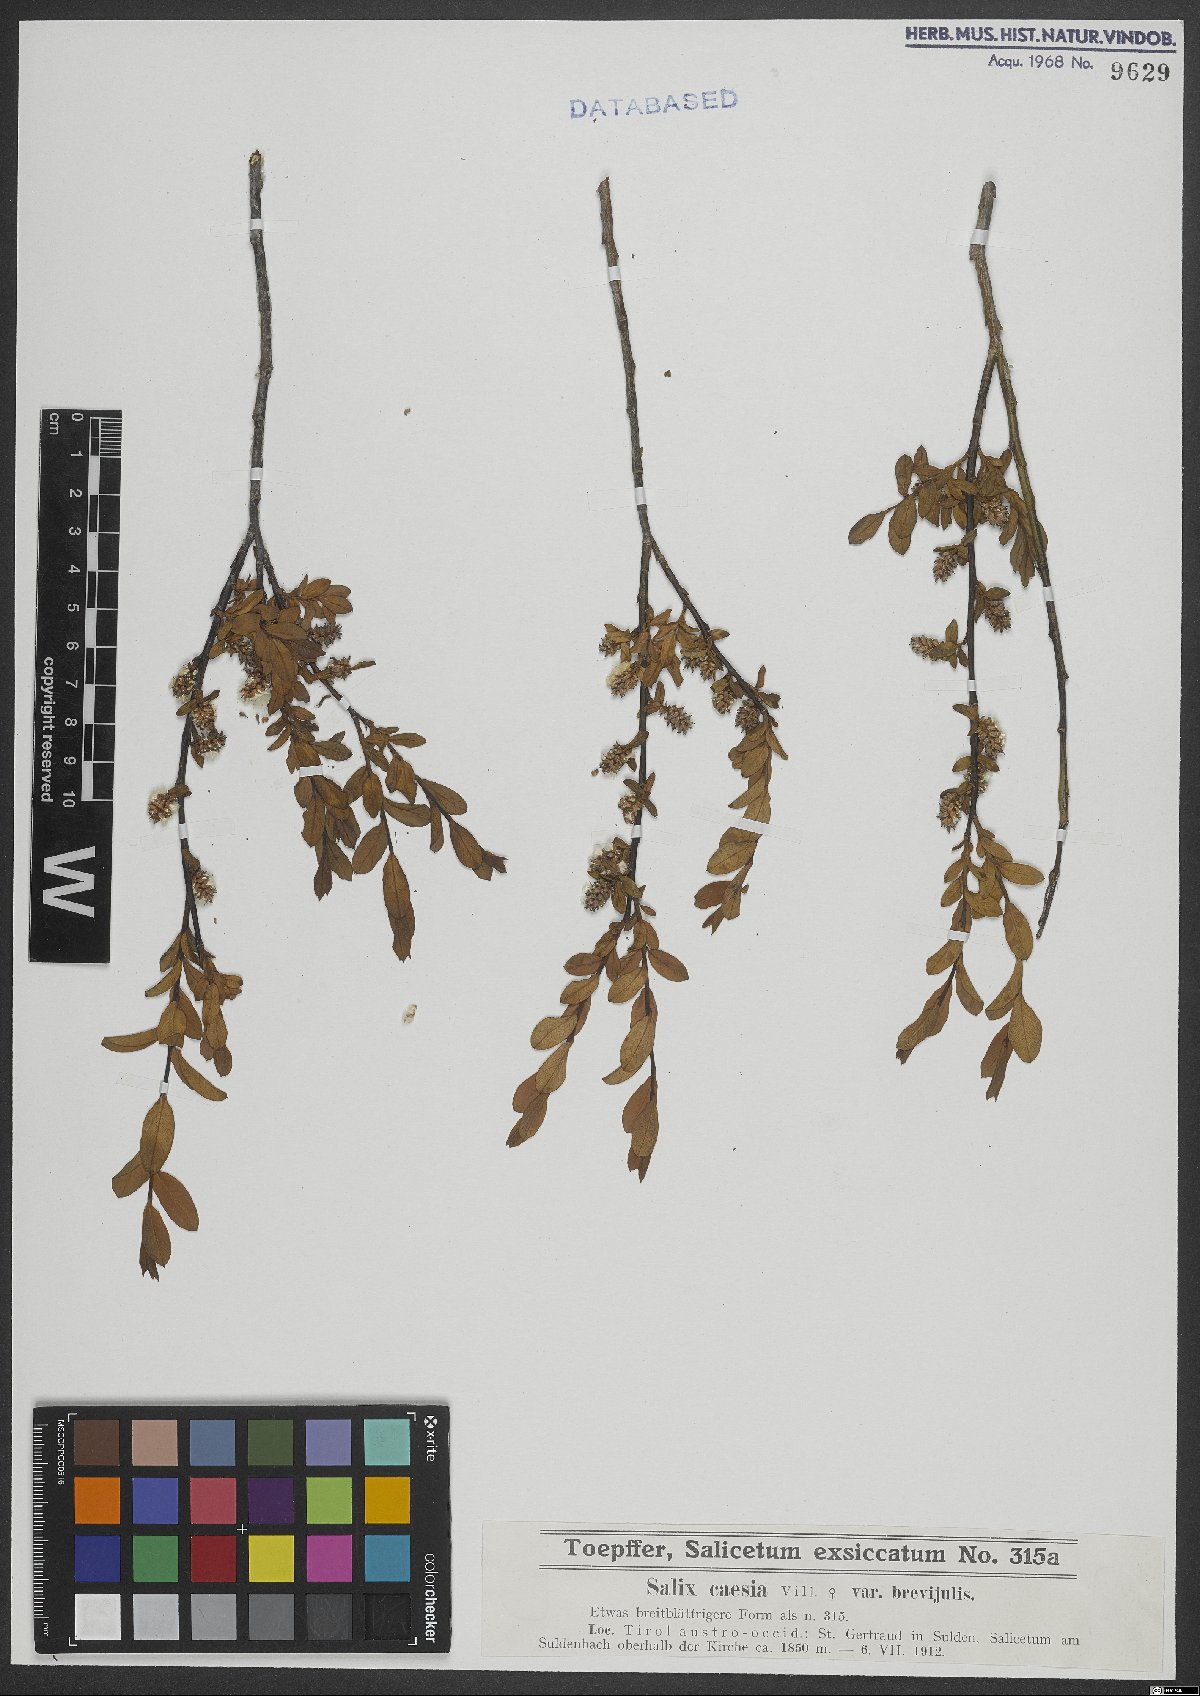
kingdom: Plantae
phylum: Tracheophyta
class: Magnoliopsida
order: Malpighiales
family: Salicaceae
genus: Salix
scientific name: Salix caesia
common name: Blue willow
